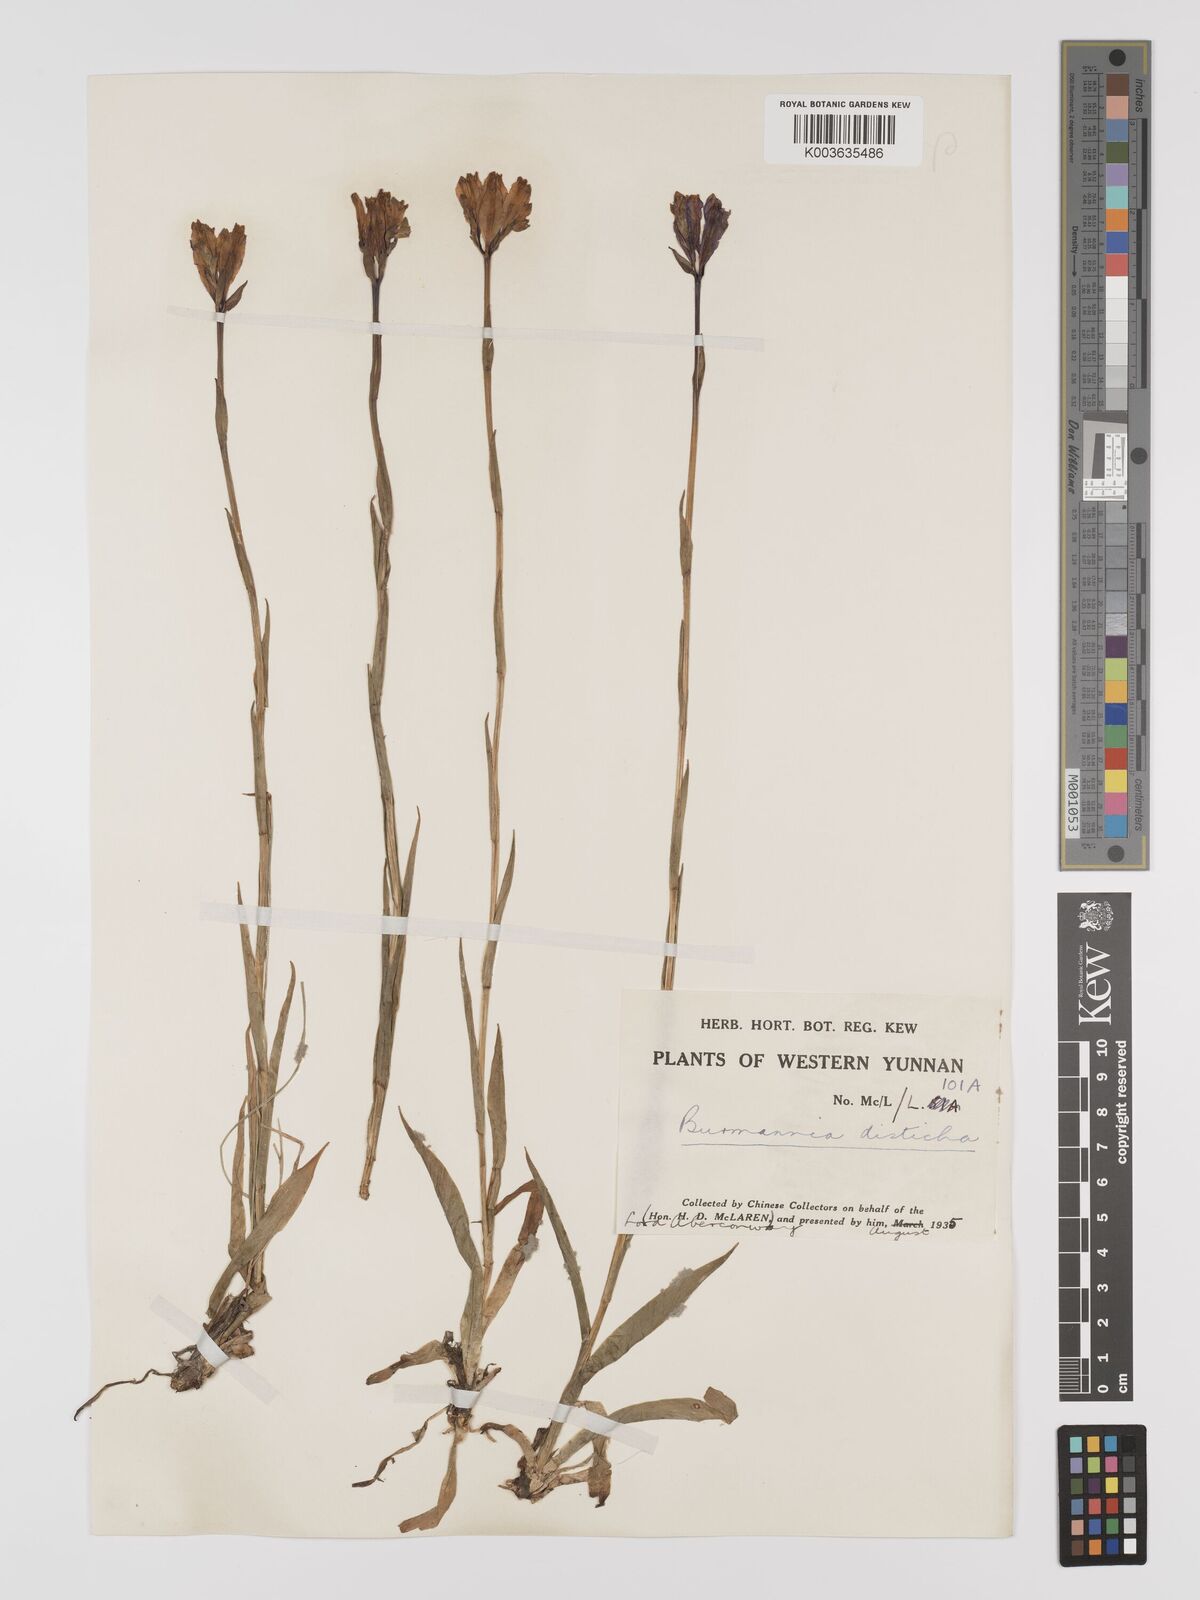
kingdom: Plantae
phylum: Tracheophyta
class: Liliopsida
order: Dioscoreales
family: Burmanniaceae
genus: Burmannia
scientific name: Burmannia disticha
